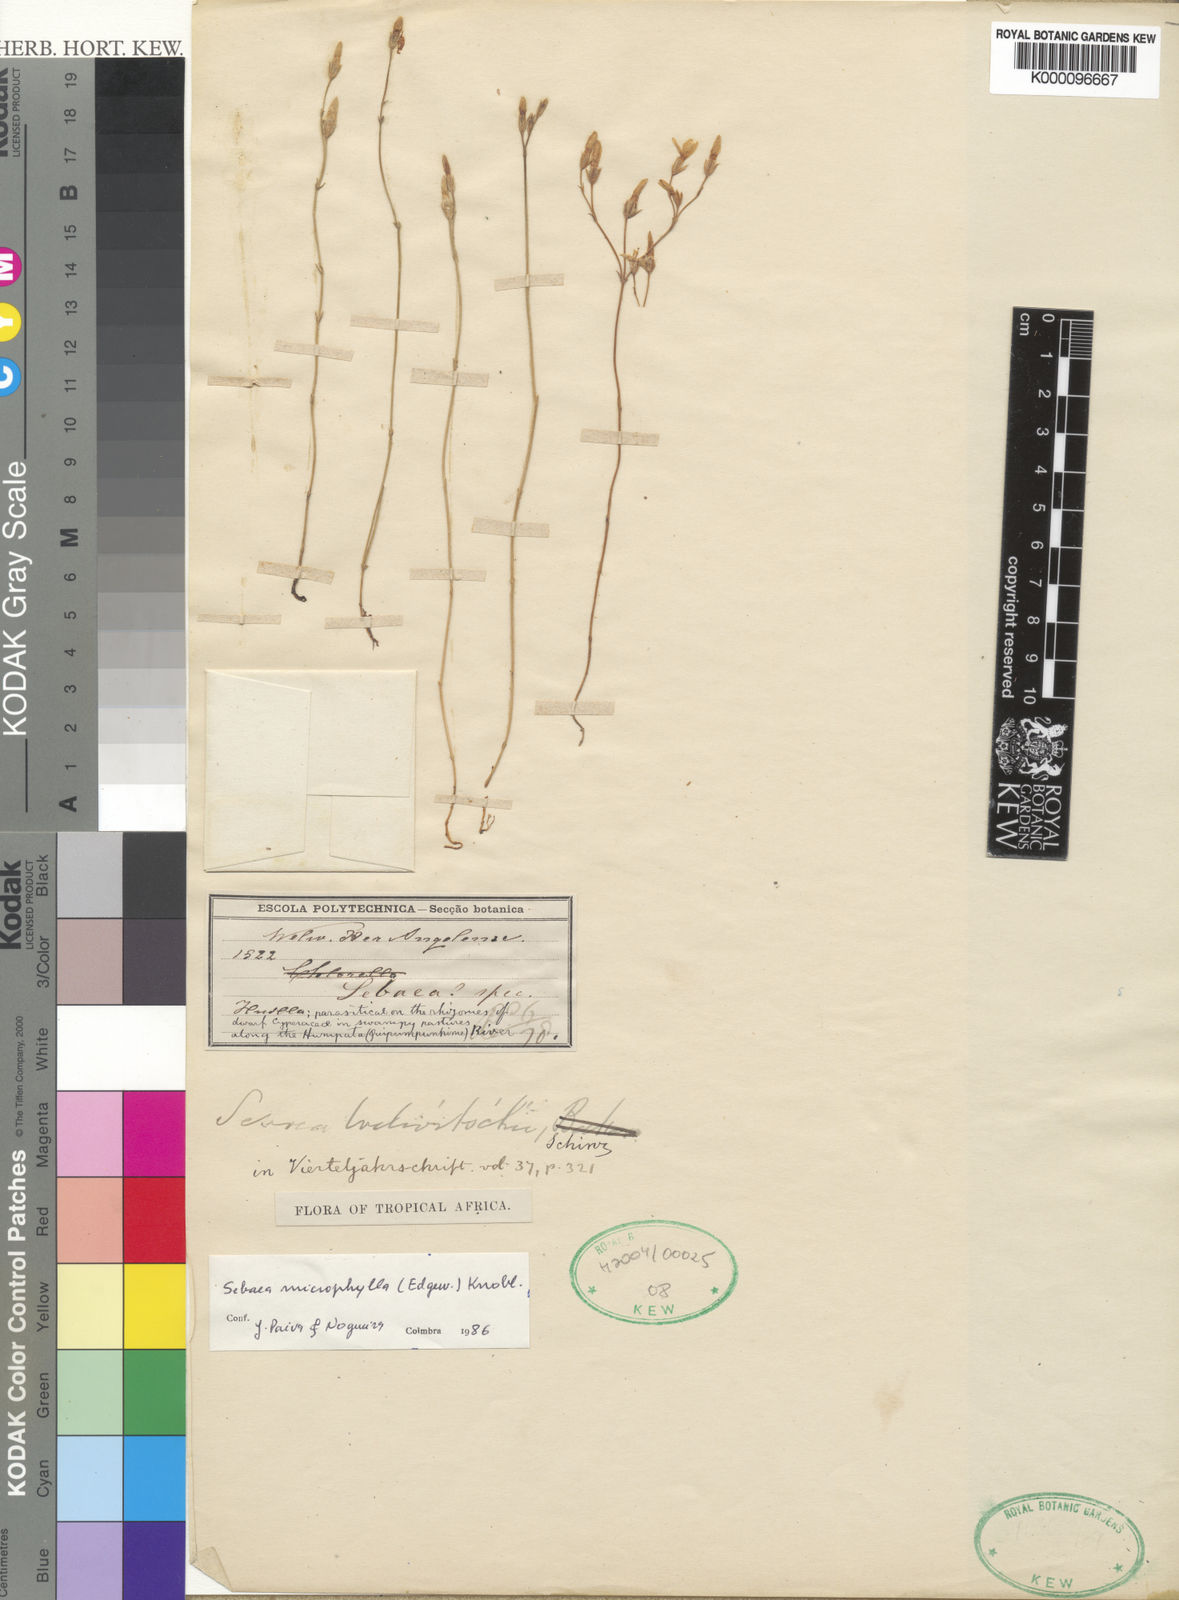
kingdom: Plantae
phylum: Tracheophyta
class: Magnoliopsida
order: Gentianales
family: Gentianaceae
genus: Sebaea
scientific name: Sebaea microphylla
